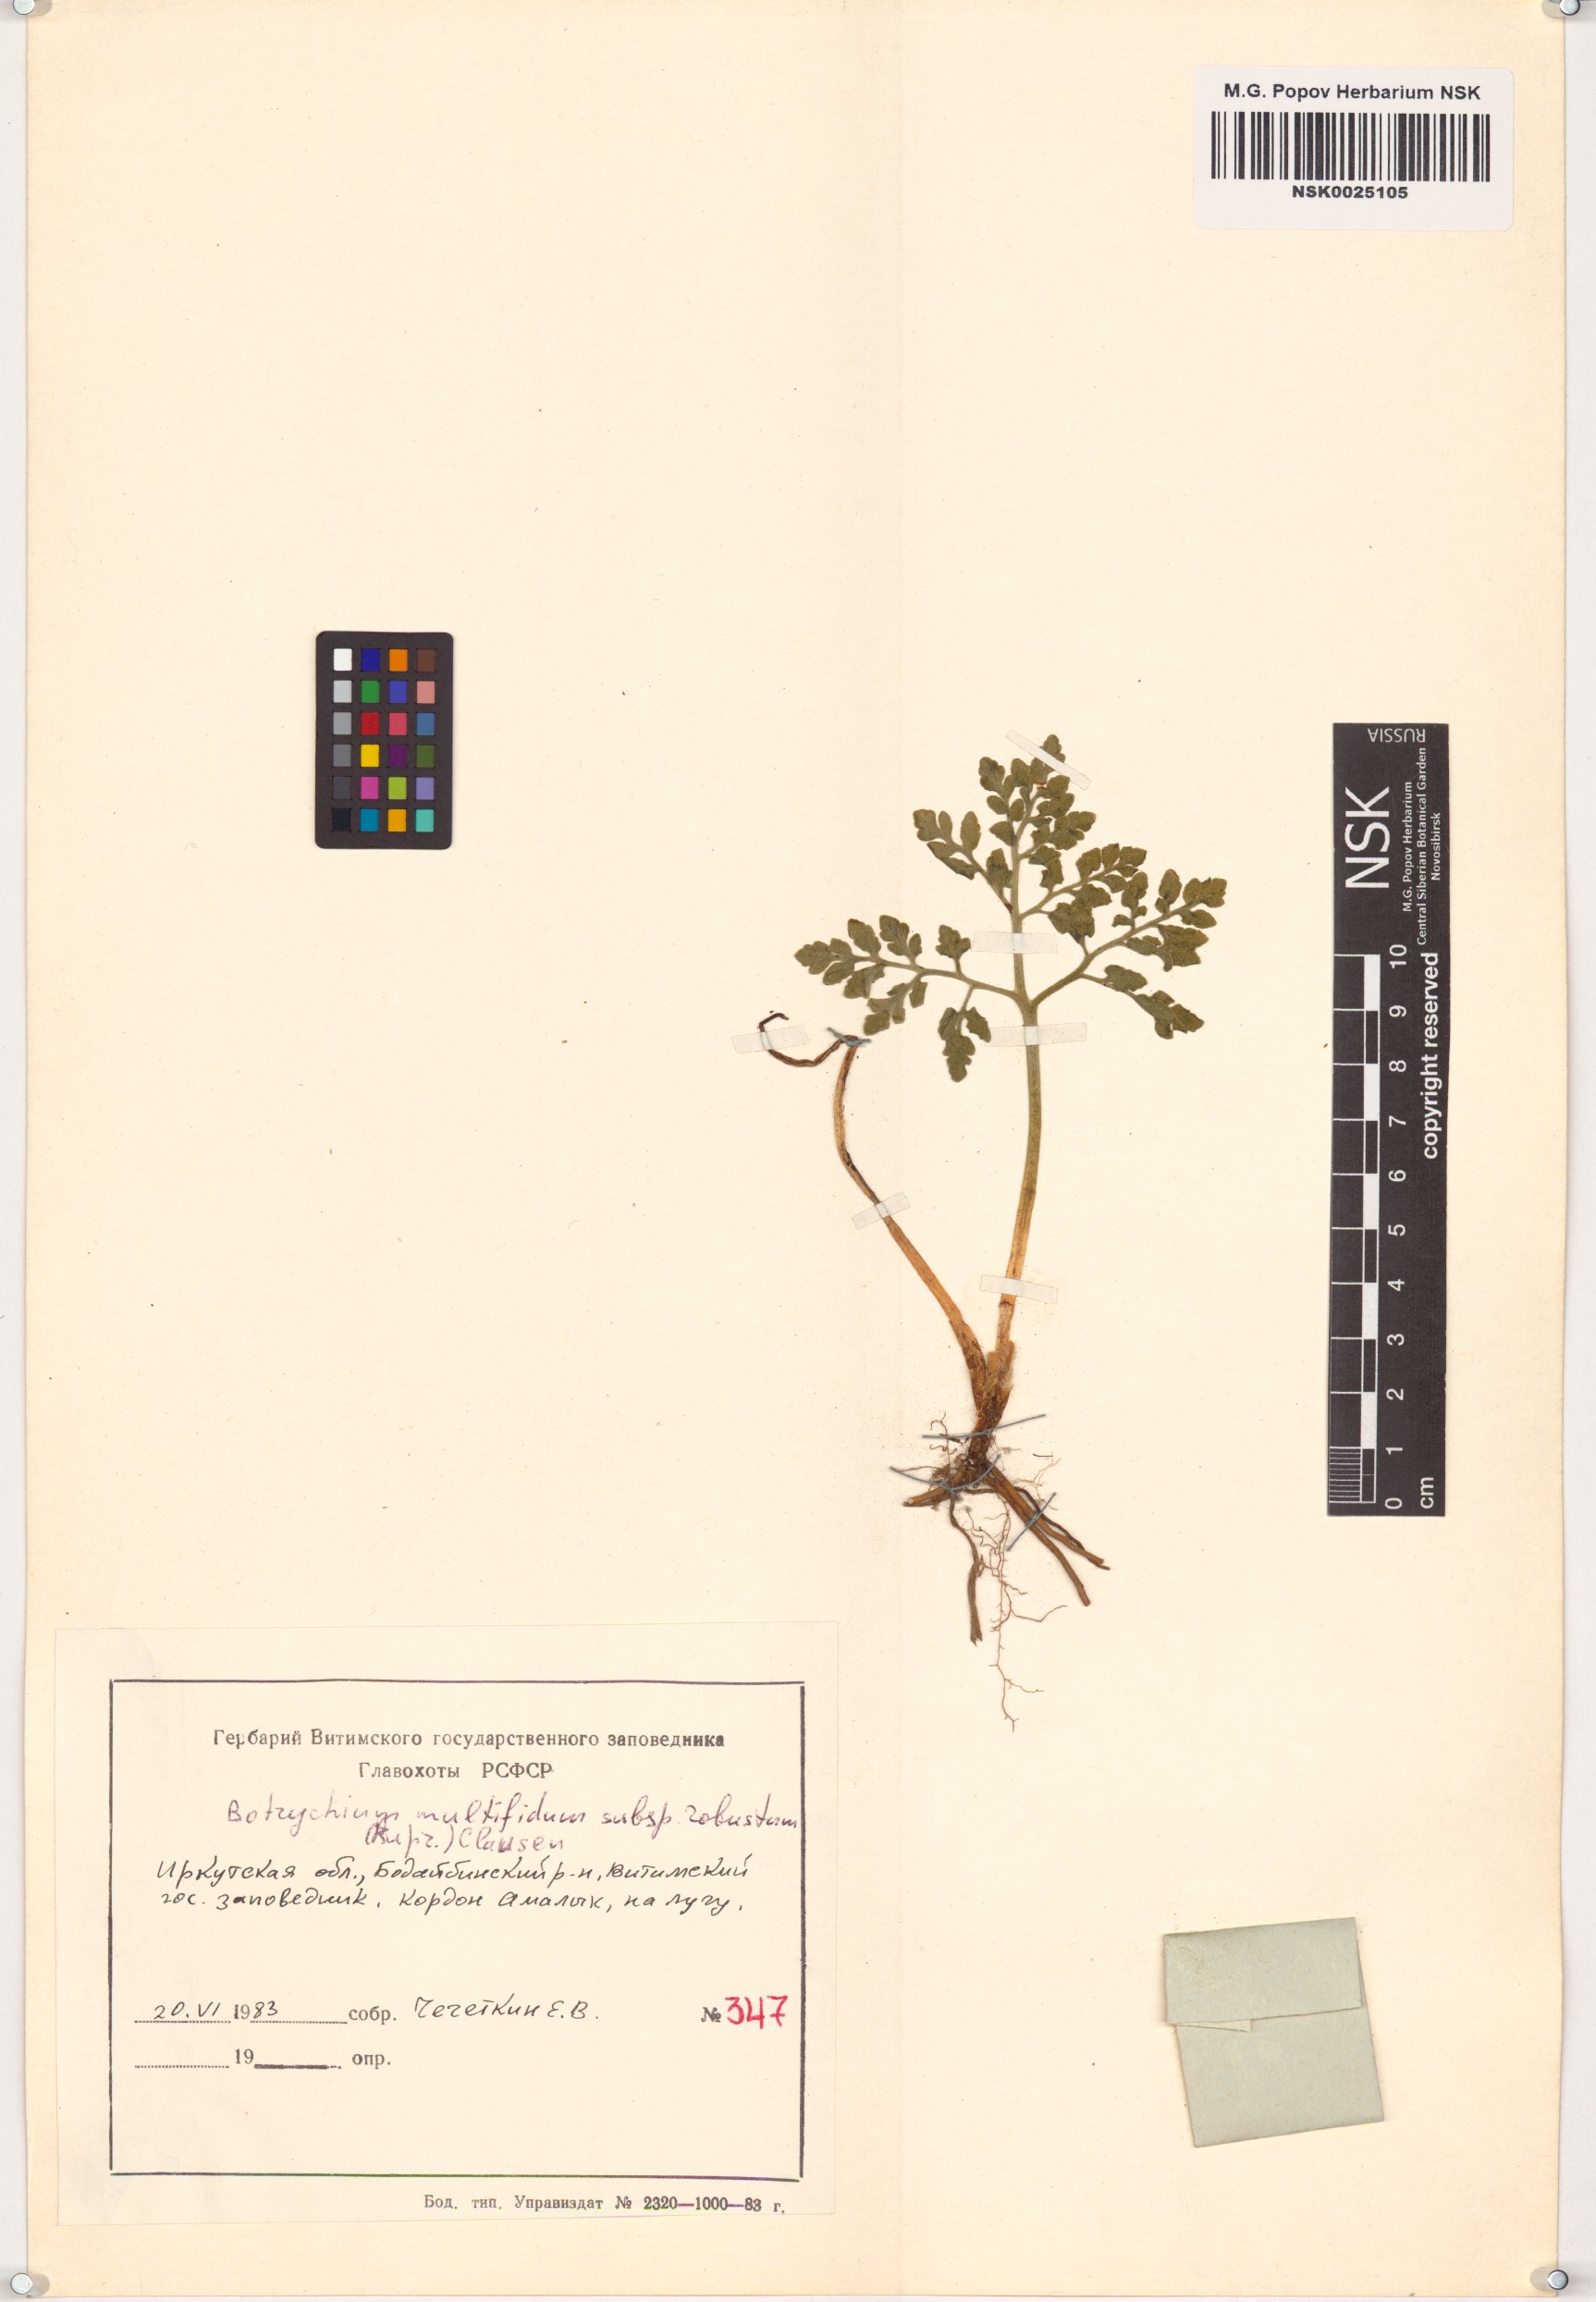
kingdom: Plantae
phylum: Tracheophyta
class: Polypodiopsida
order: Ophioglossales
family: Ophioglossaceae
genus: Sceptridium
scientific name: Sceptridium multifidum
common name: Leathery grape fern
